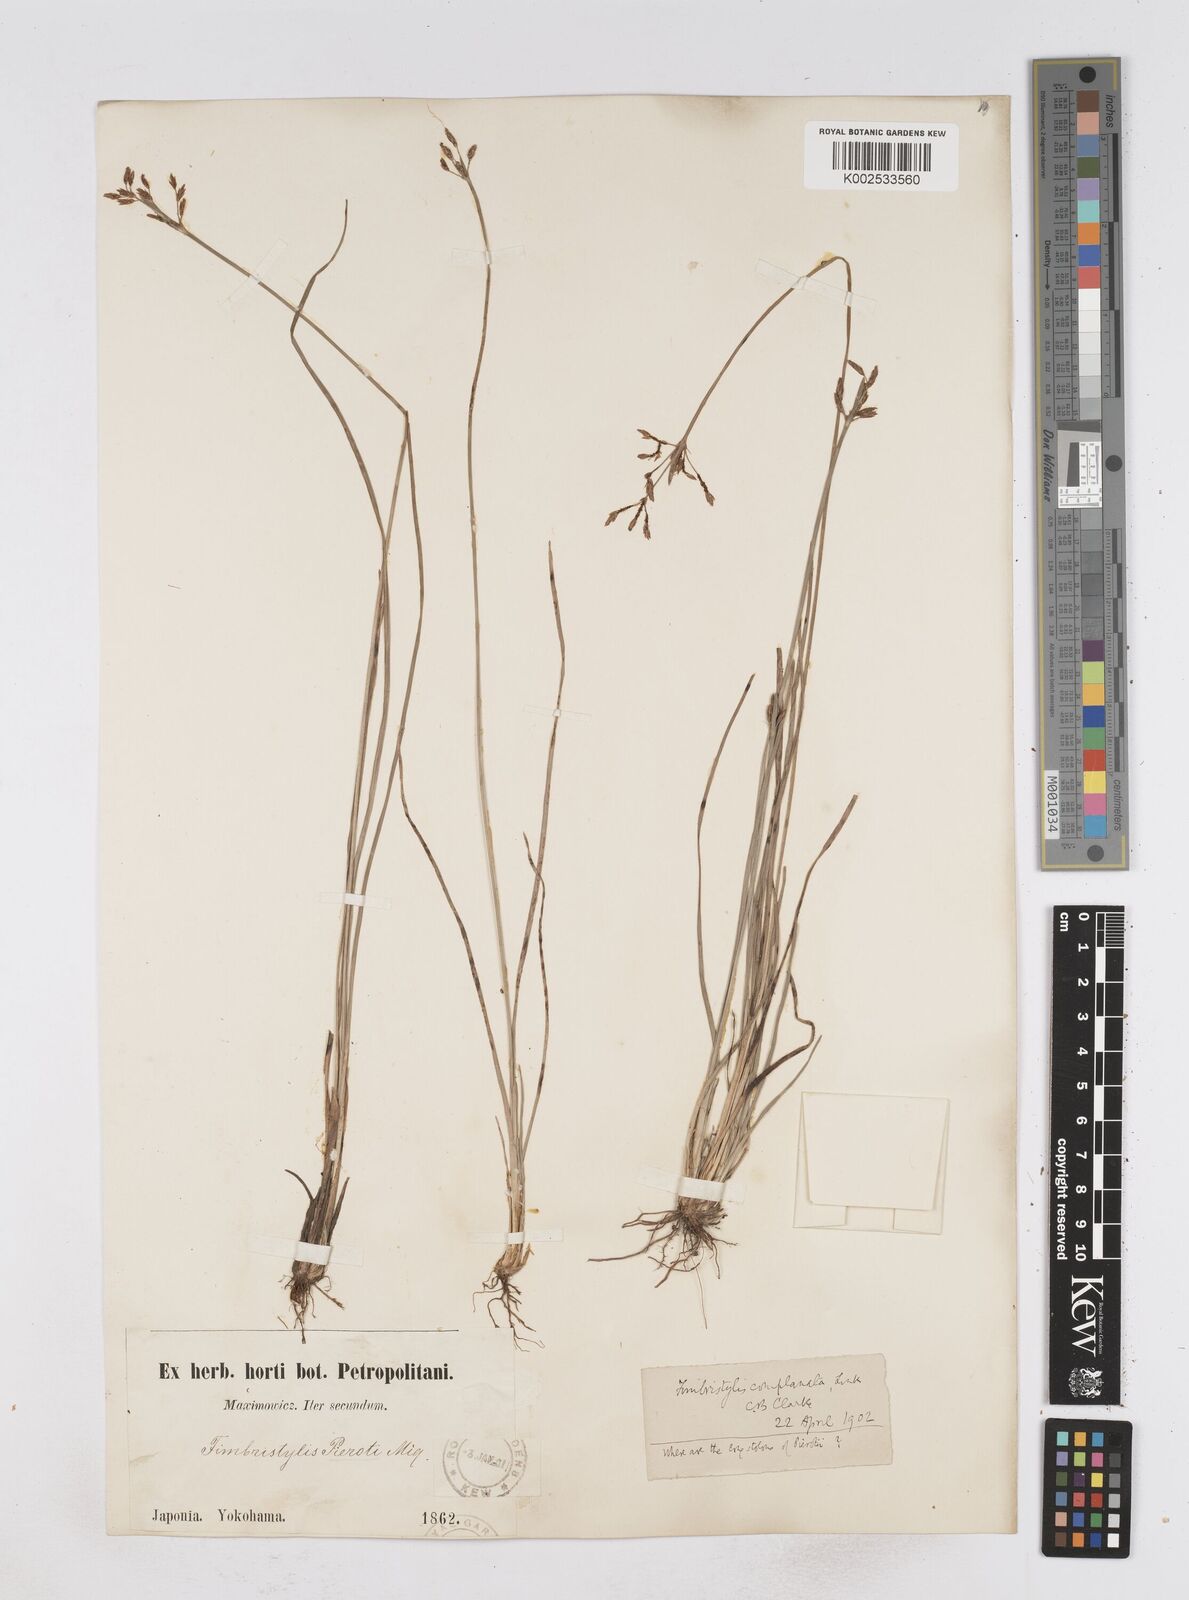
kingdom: Plantae
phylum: Tracheophyta
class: Liliopsida
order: Poales
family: Cyperaceae
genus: Fimbristylis
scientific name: Fimbristylis complanata
